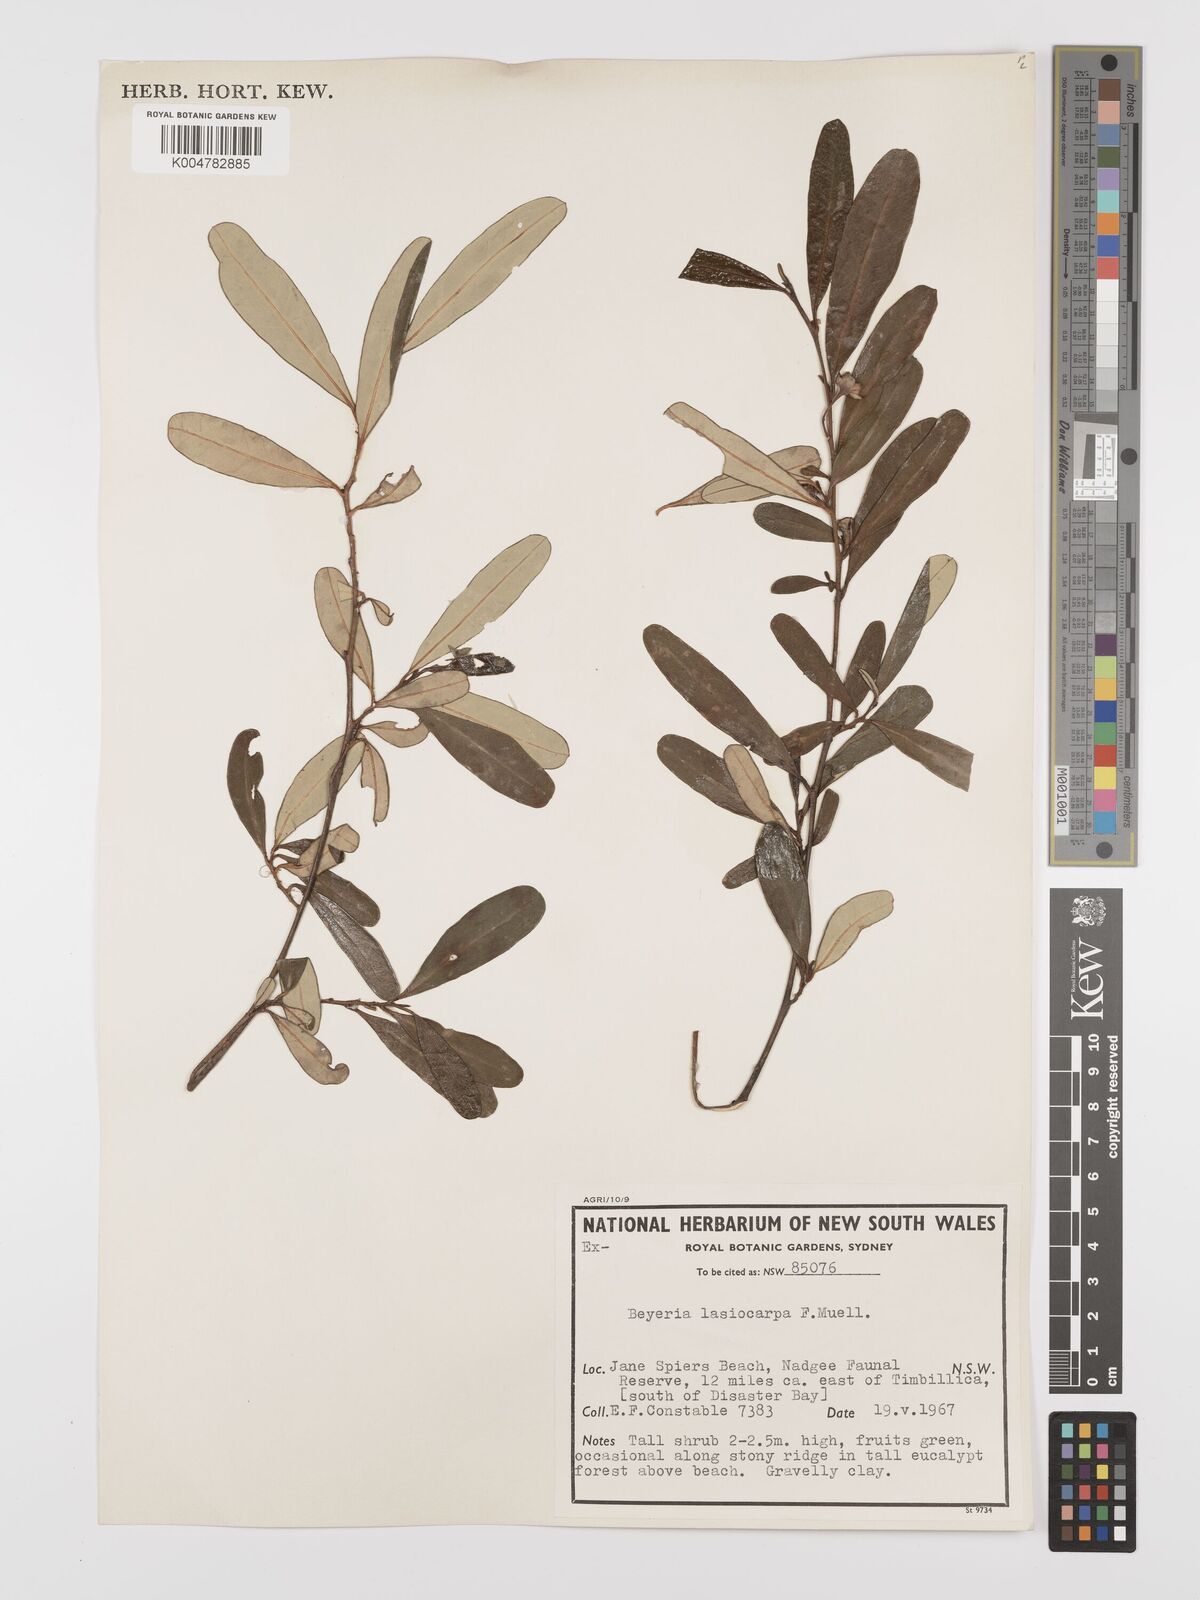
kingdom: Plantae
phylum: Tracheophyta
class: Magnoliopsida
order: Malpighiales
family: Euphorbiaceae
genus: Beyeria
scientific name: Beyeria lasiocarpa
